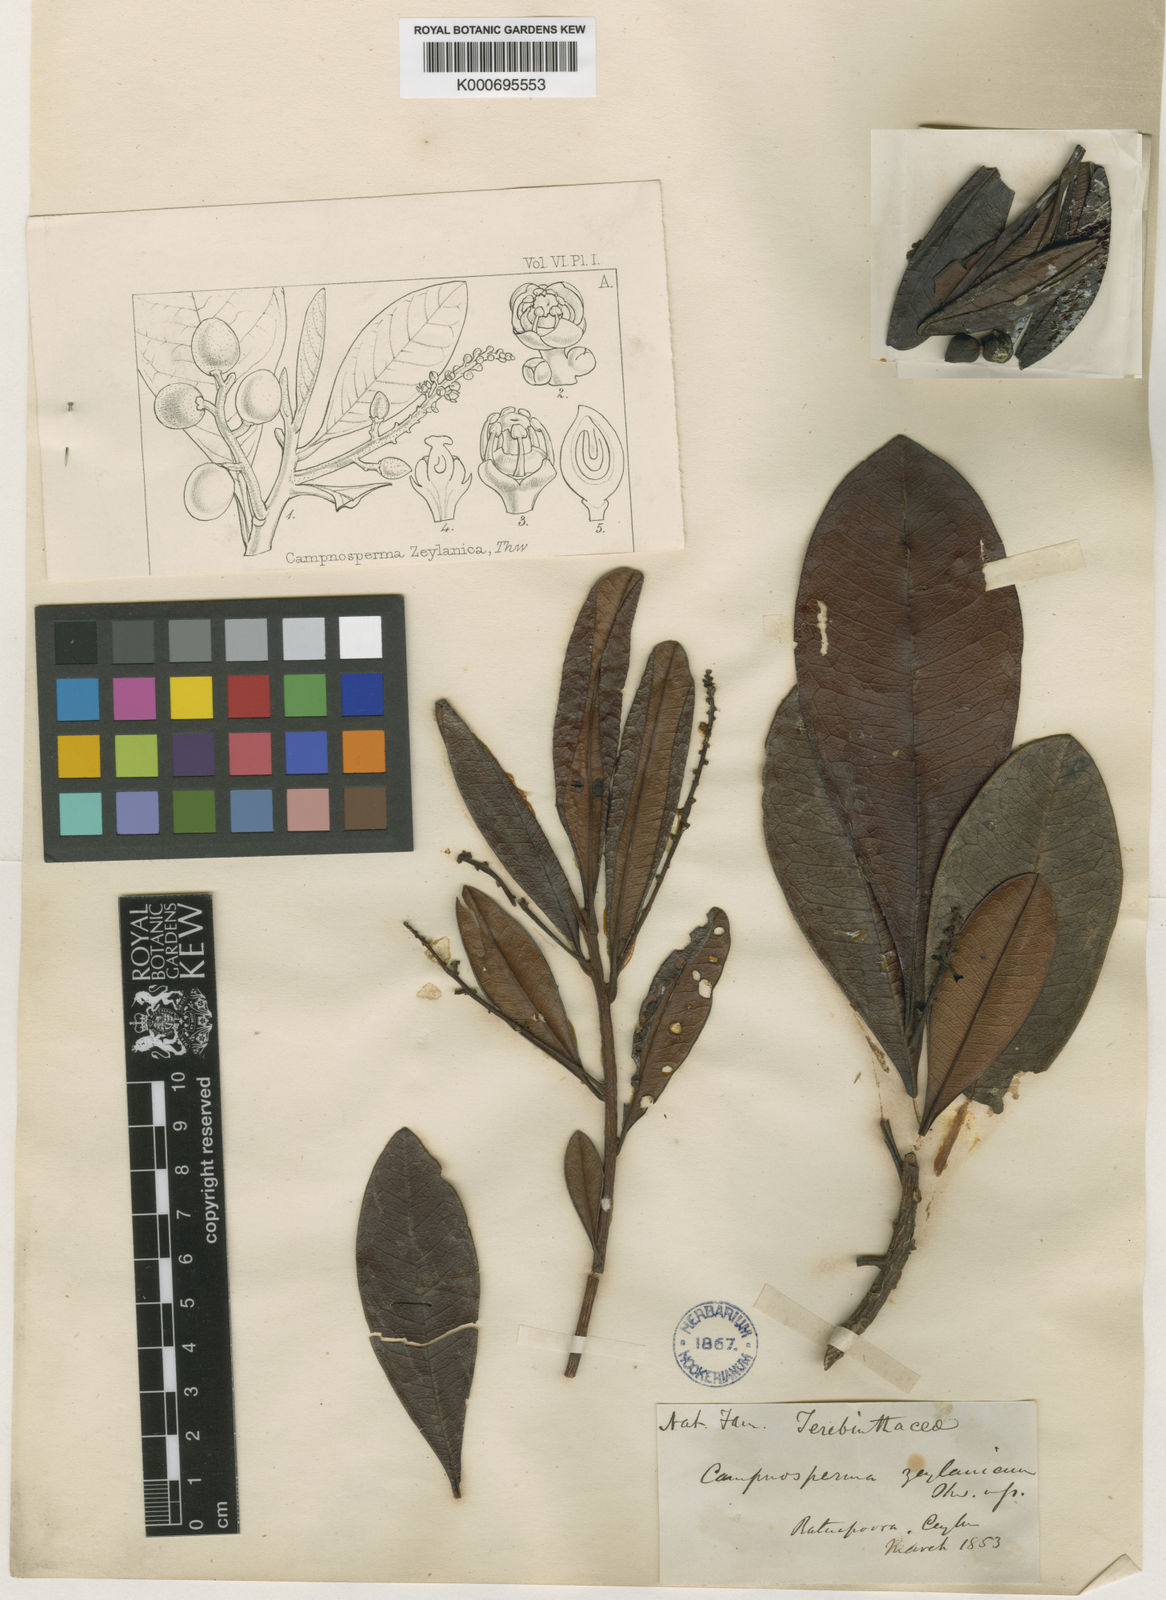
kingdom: Plantae
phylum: Tracheophyta
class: Magnoliopsida
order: Sapindales
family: Anacardiaceae
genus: Campnosperma
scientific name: Campnosperma zeylanicum
